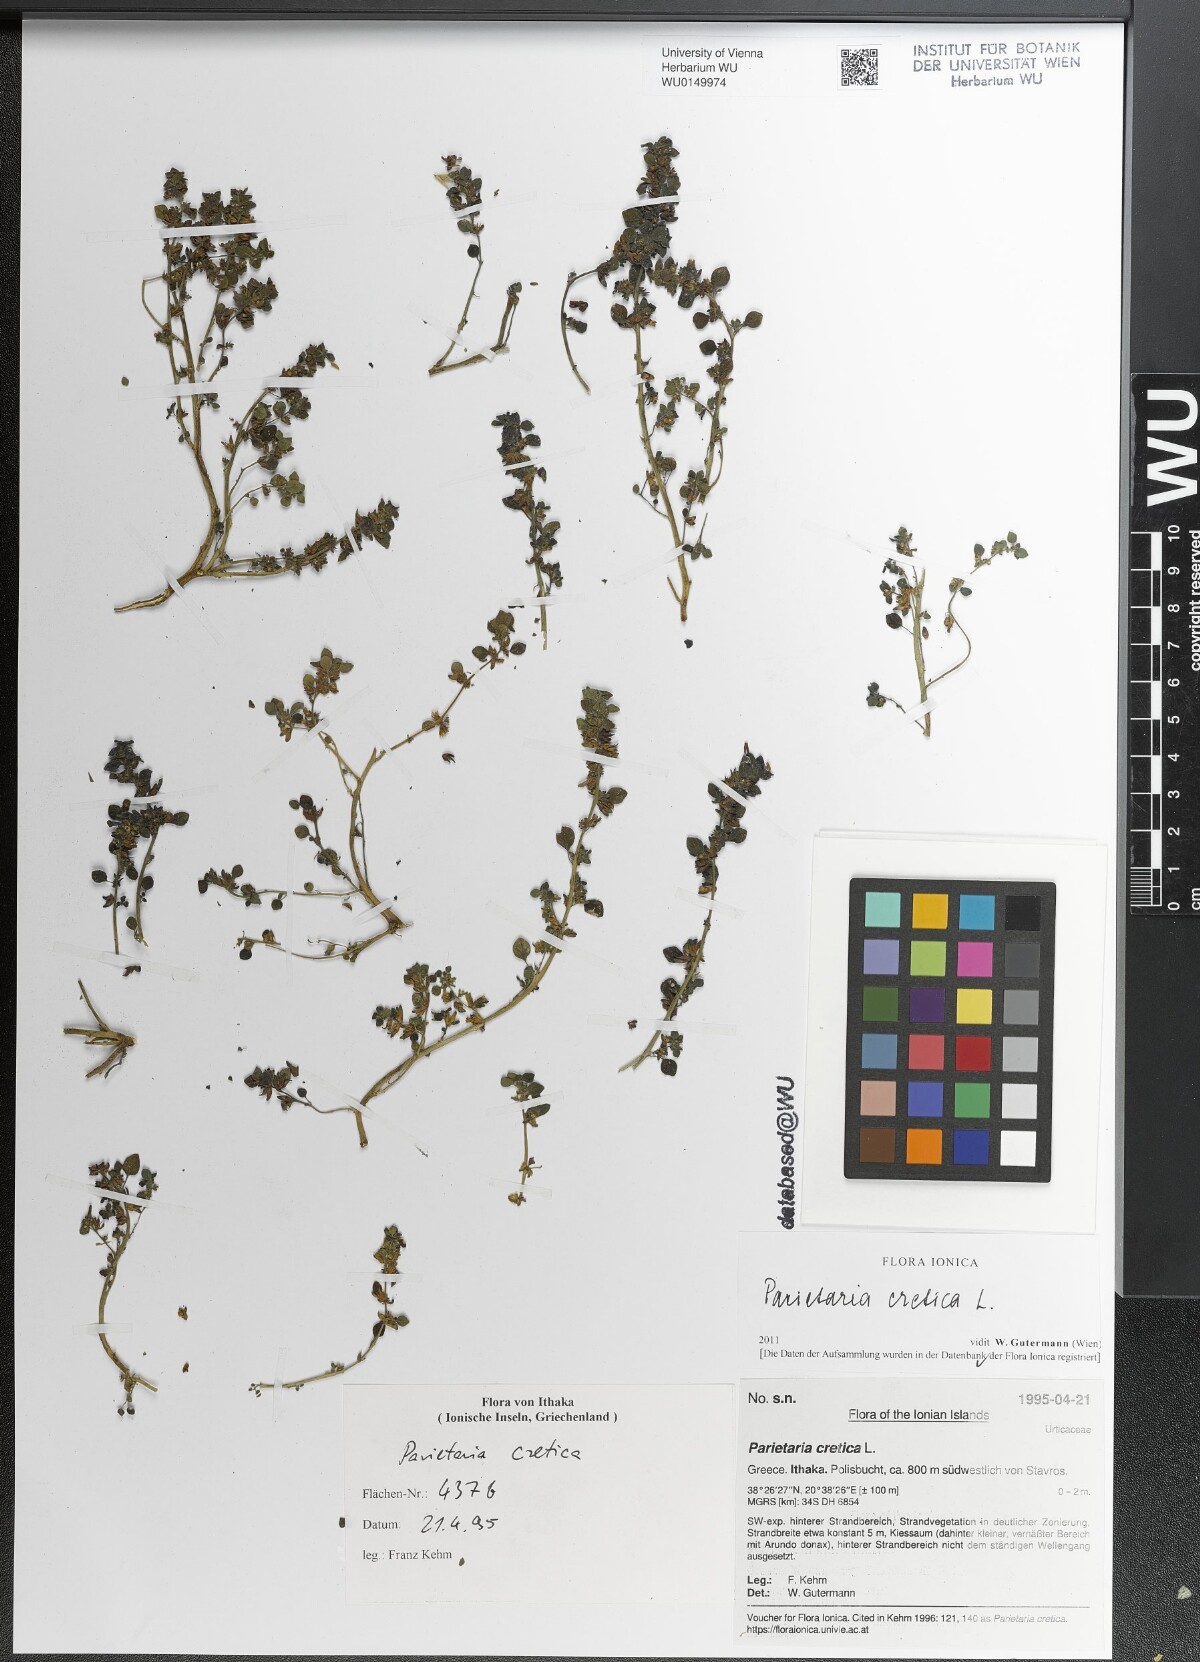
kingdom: Plantae
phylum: Tracheophyta
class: Magnoliopsida
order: Rosales
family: Urticaceae
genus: Parietaria
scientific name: Parietaria cretica
